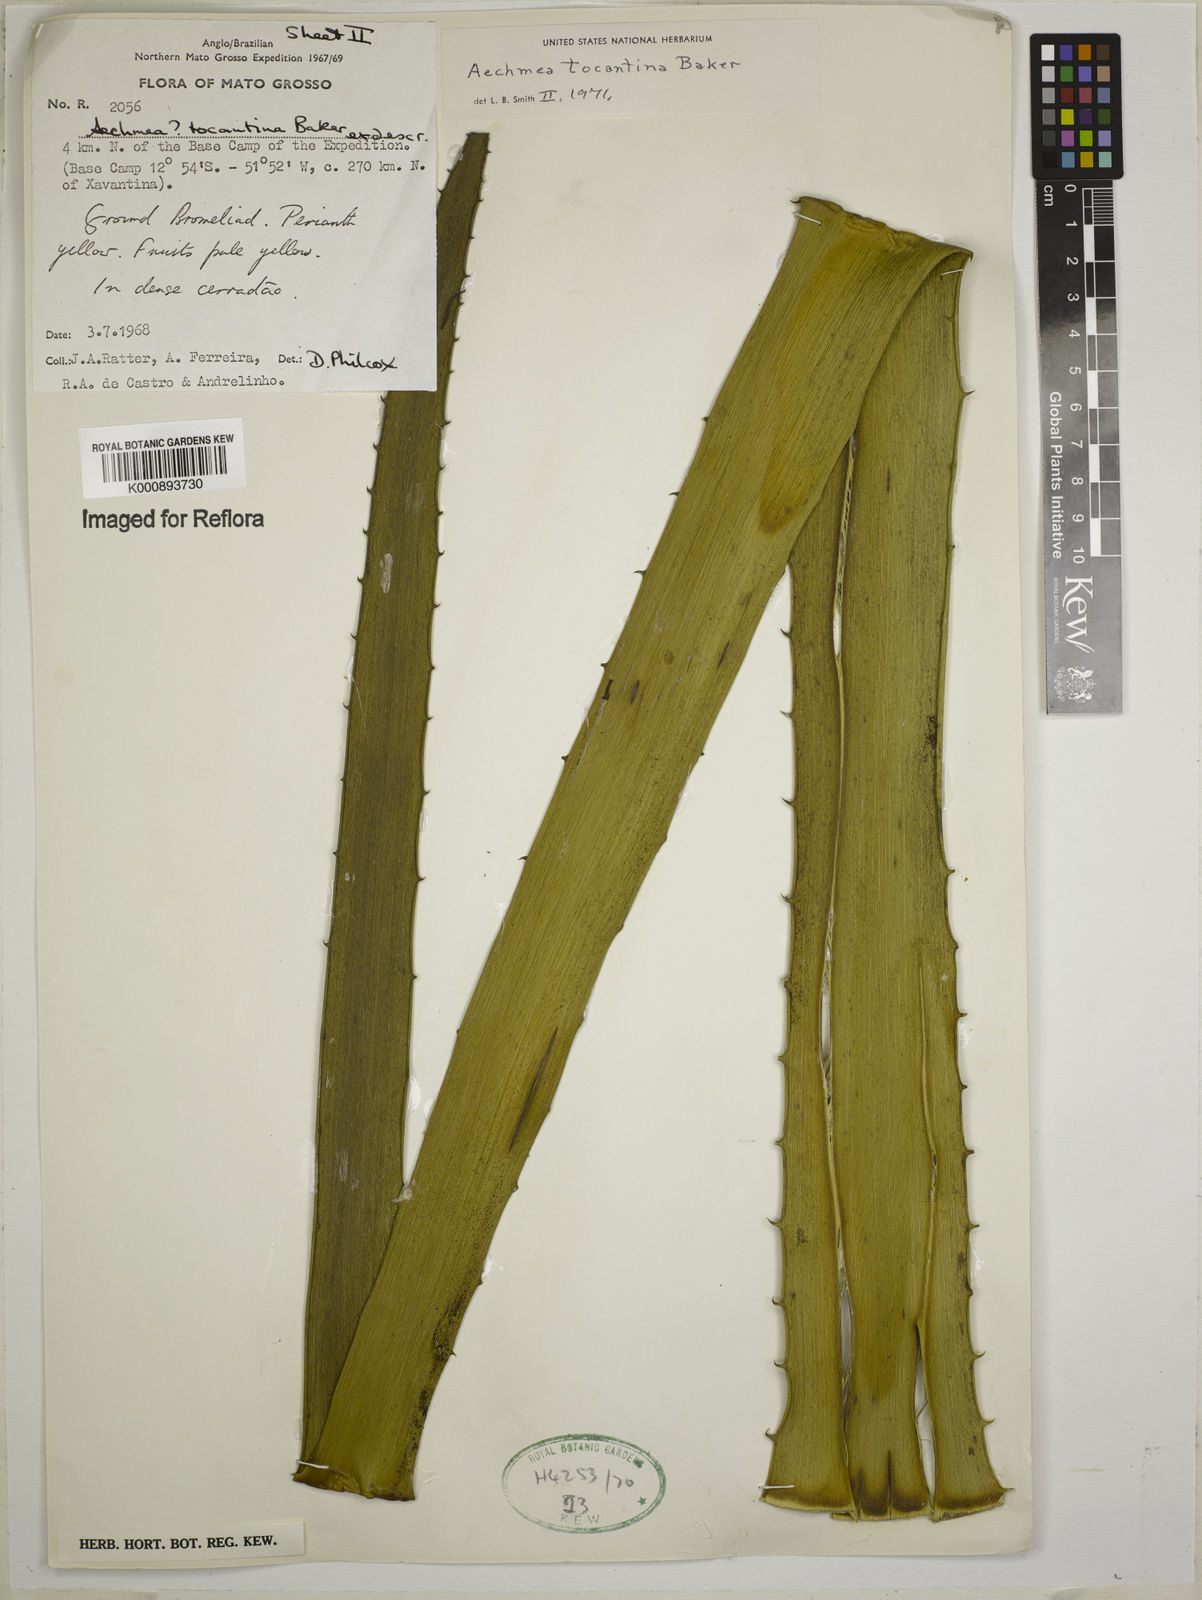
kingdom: Plantae
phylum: Tracheophyta
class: Liliopsida
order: Poales
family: Bromeliaceae
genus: Aechmea
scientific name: Aechmea tocantina
